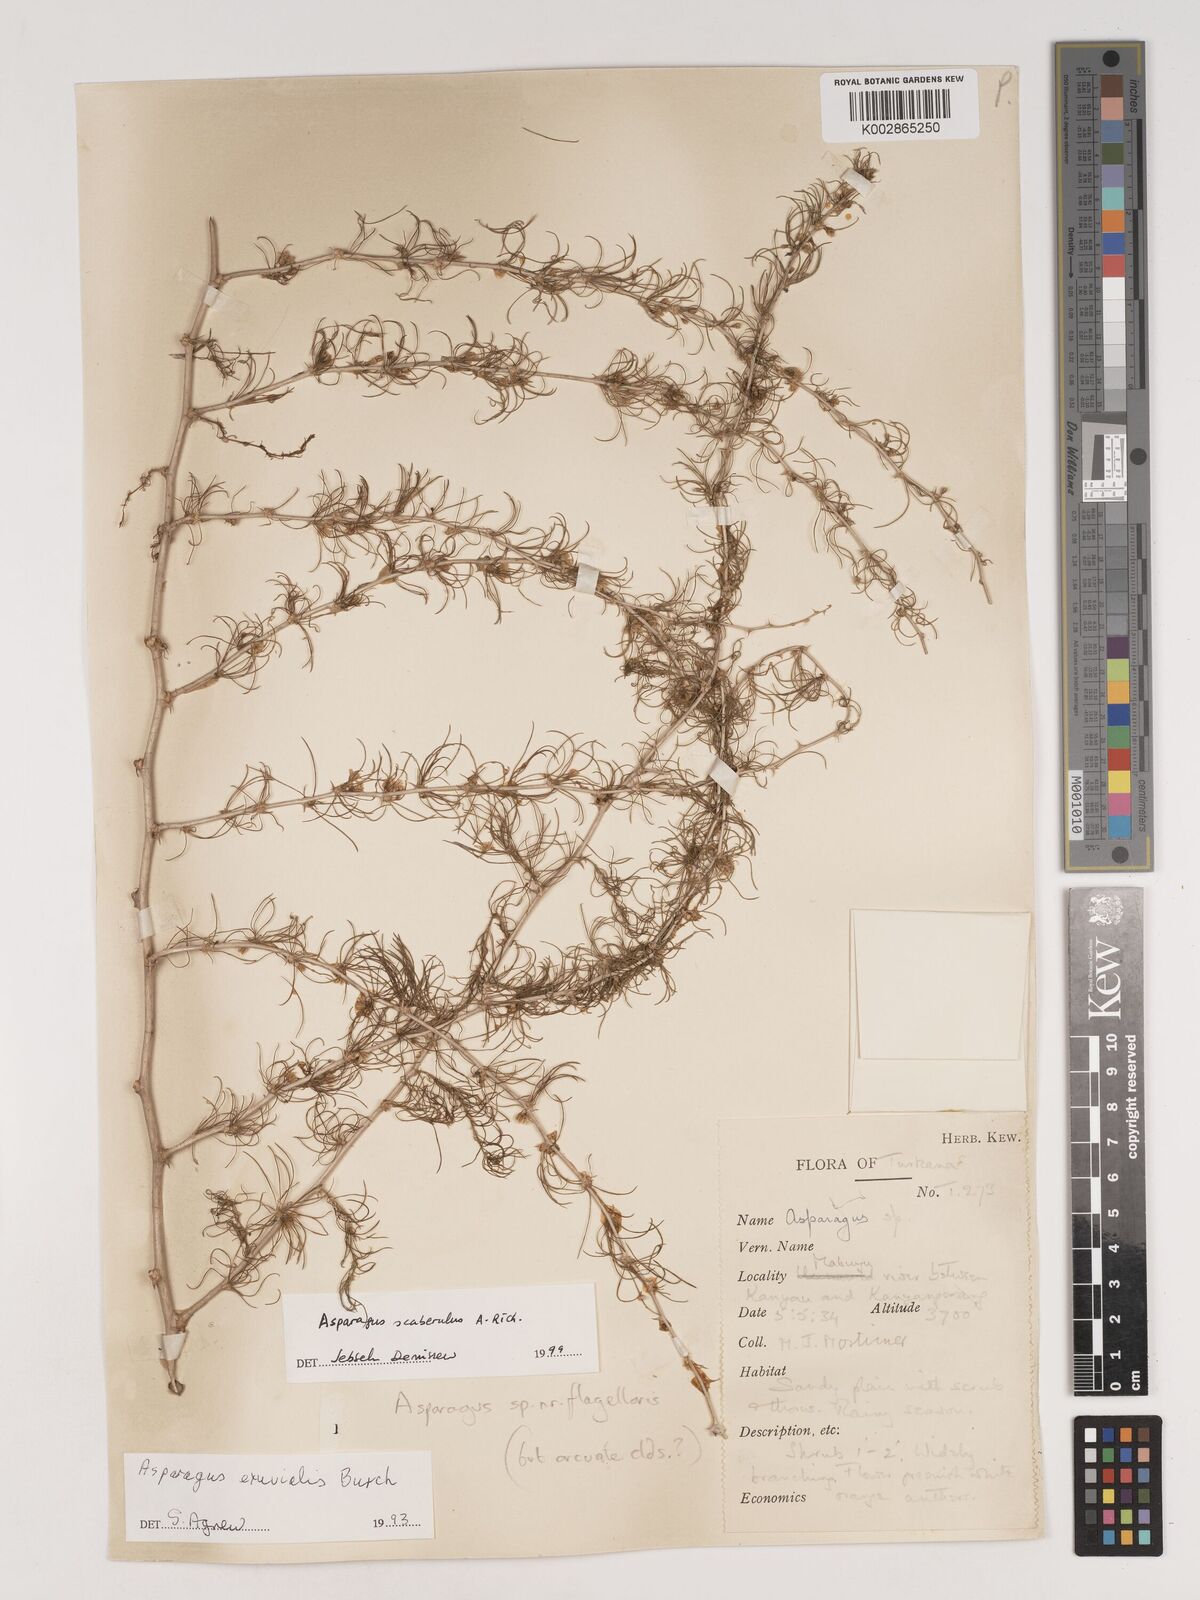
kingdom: Plantae
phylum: Tracheophyta
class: Liliopsida
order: Asparagales
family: Asparagaceae
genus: Asparagus
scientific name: Asparagus scaberulus
